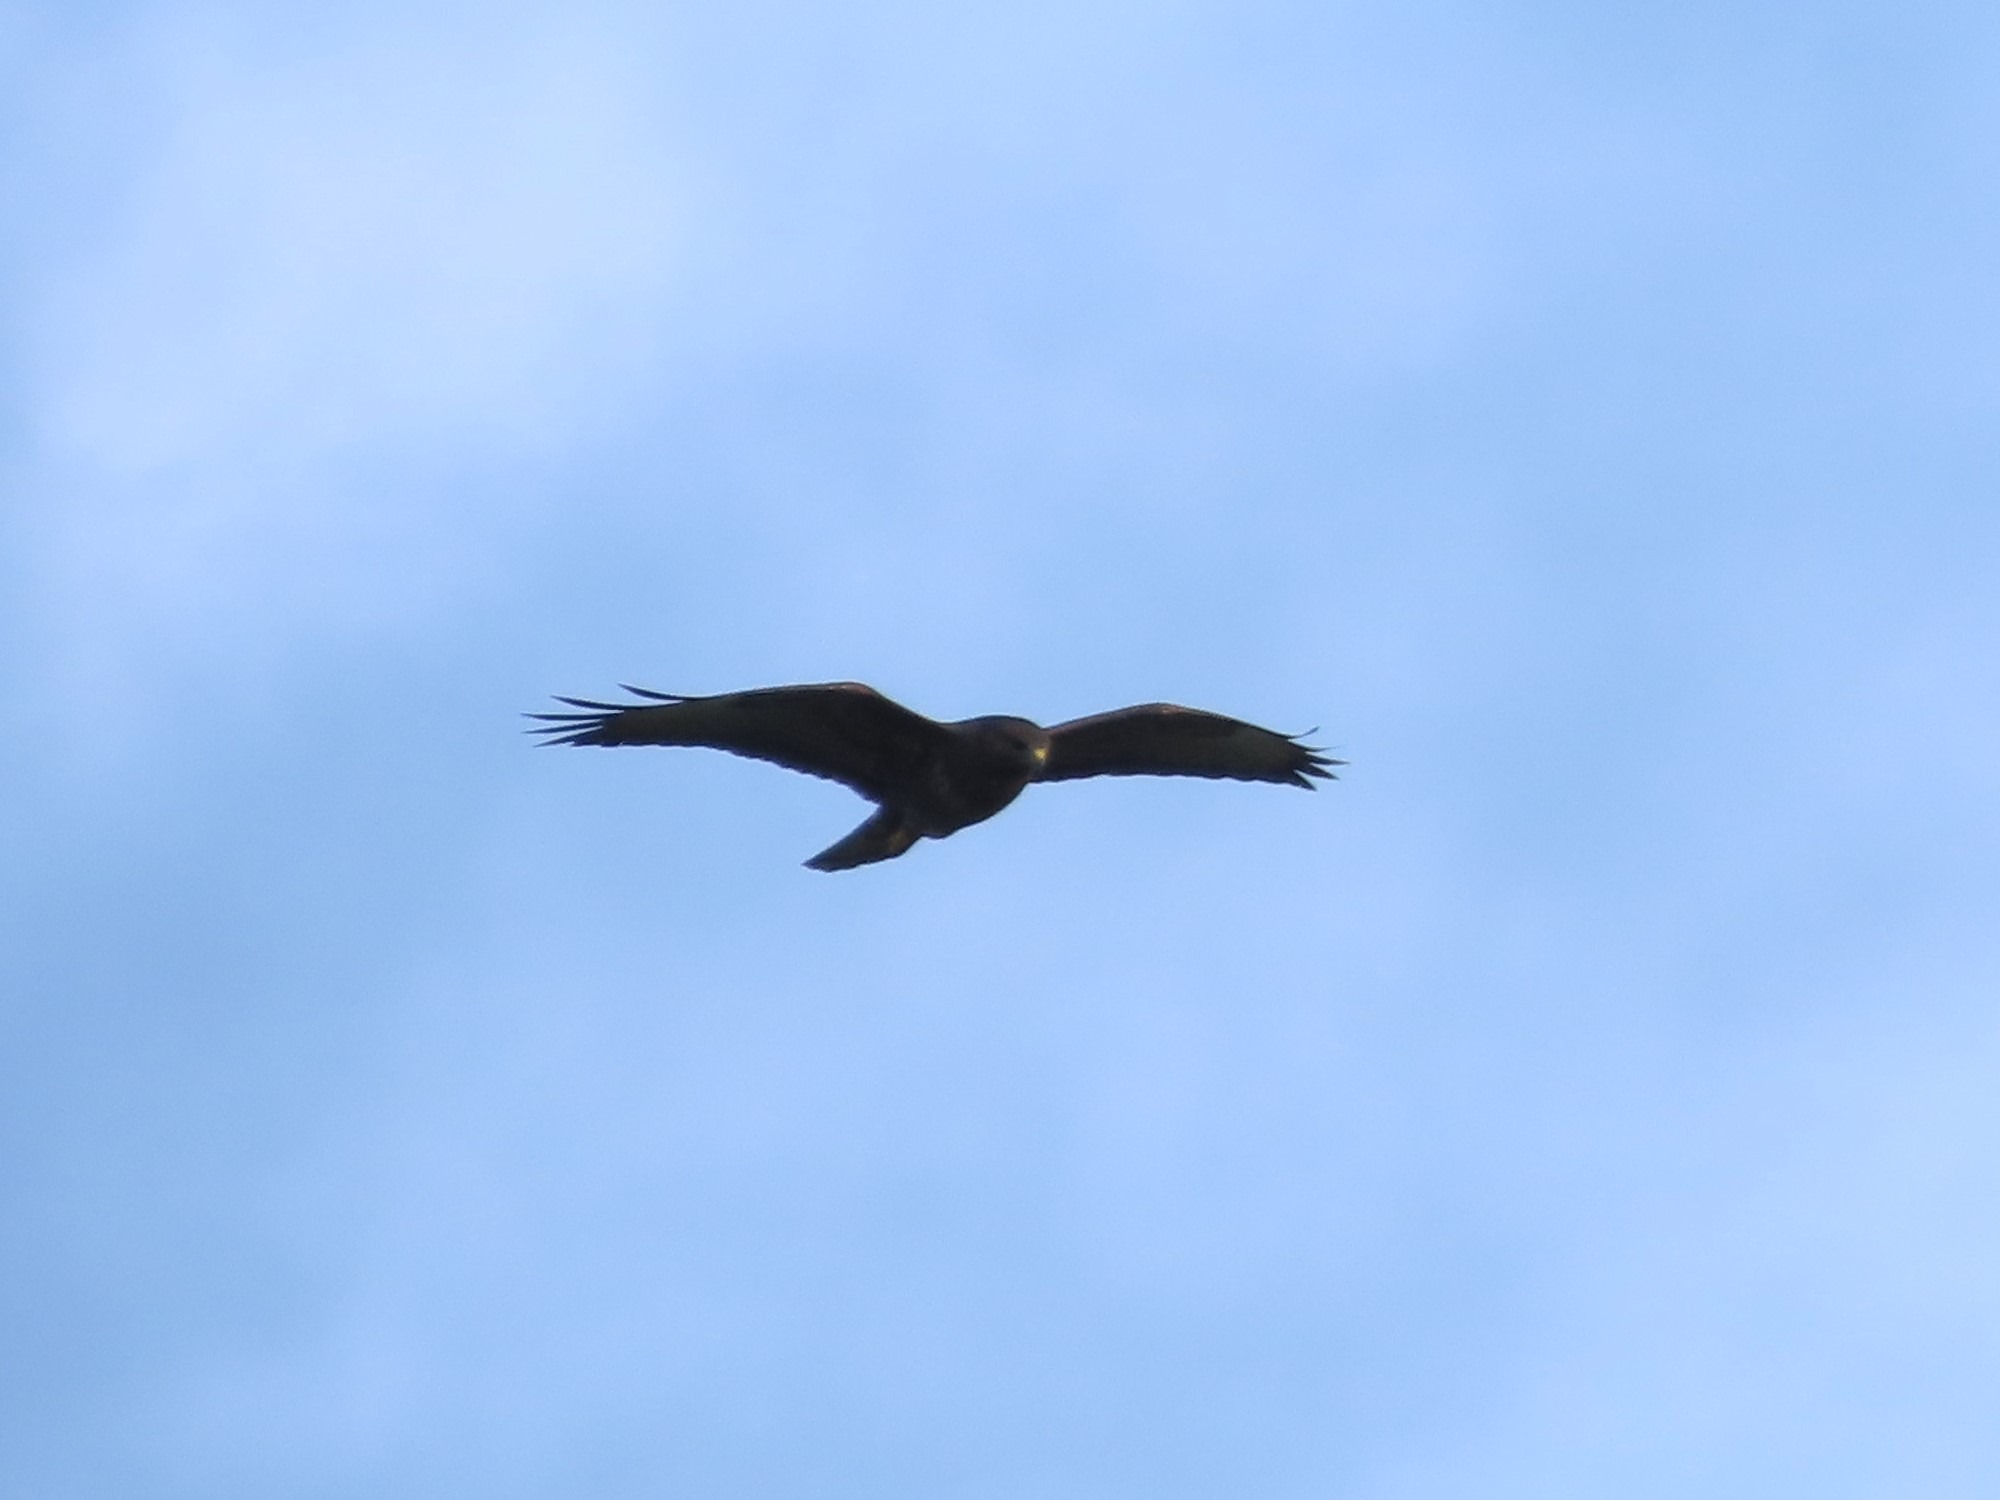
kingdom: Animalia
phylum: Chordata
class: Aves
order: Accipitriformes
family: Accipitridae
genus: Buteo
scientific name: Buteo buteo
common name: Musvåge
